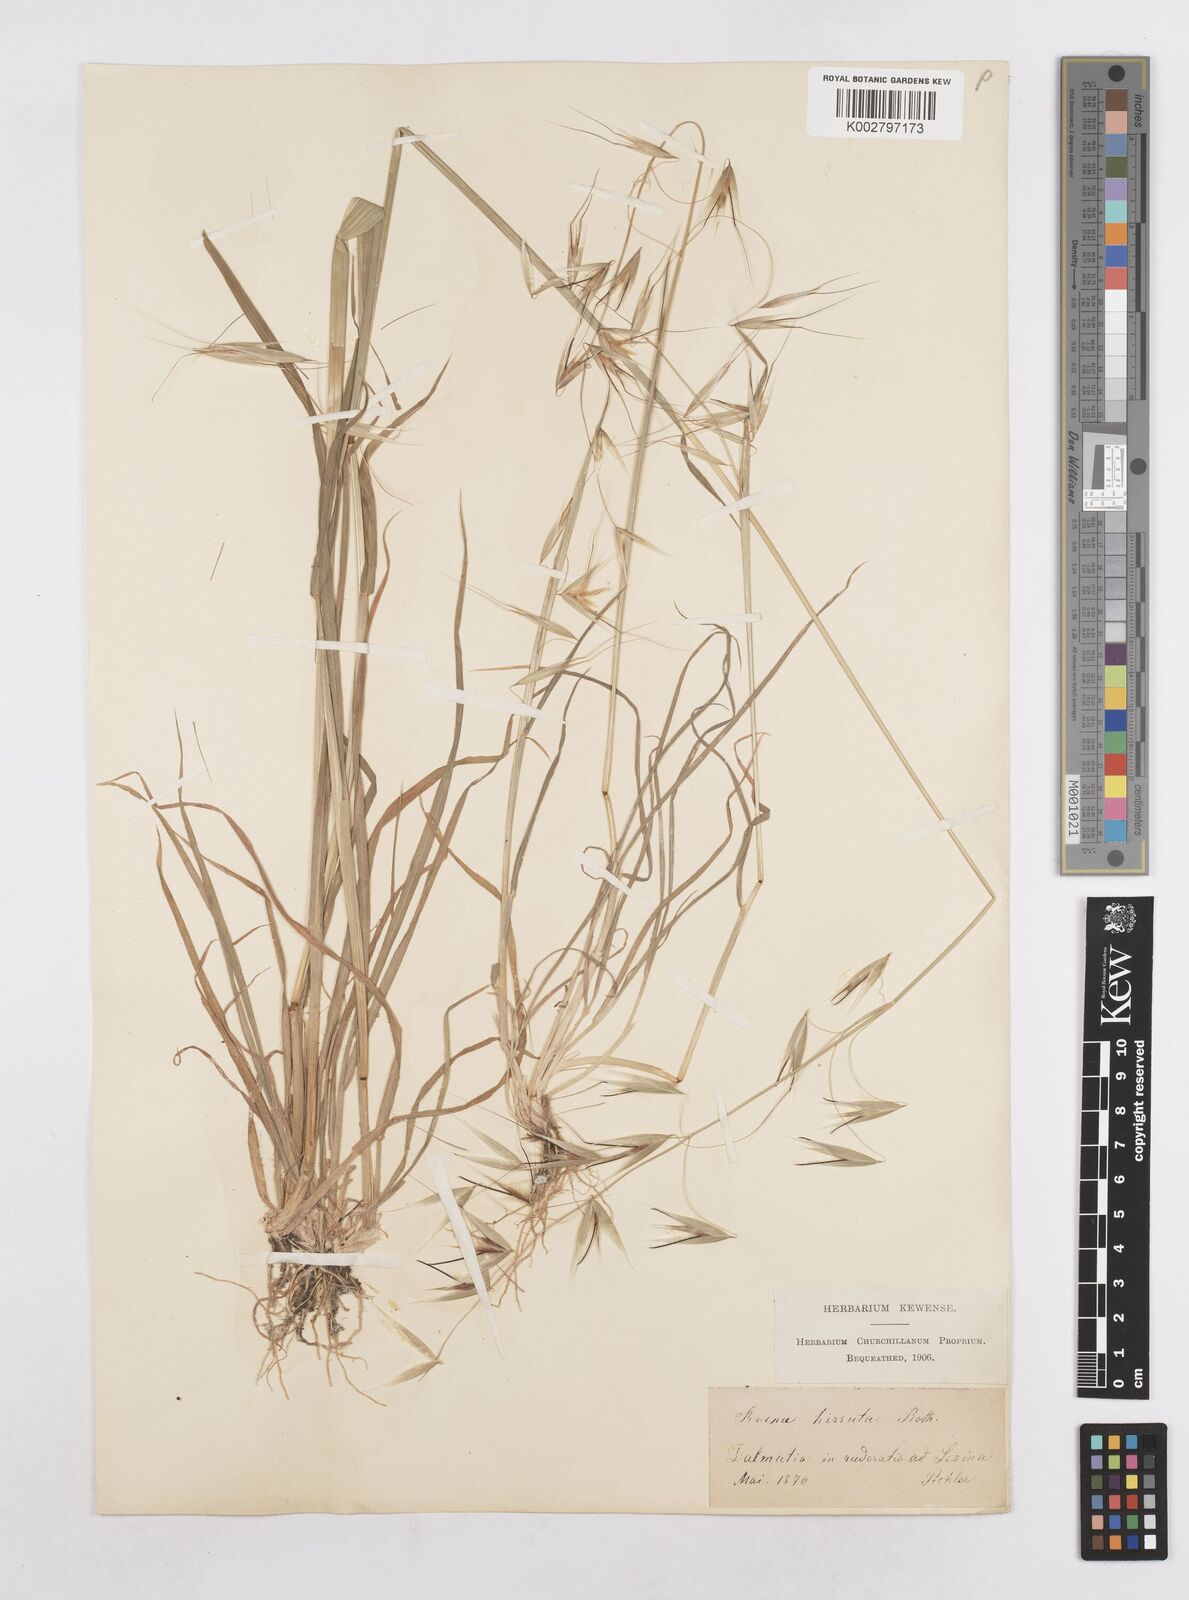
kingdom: Plantae
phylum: Tracheophyta
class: Liliopsida
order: Poales
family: Poaceae
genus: Avena
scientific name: Avena
